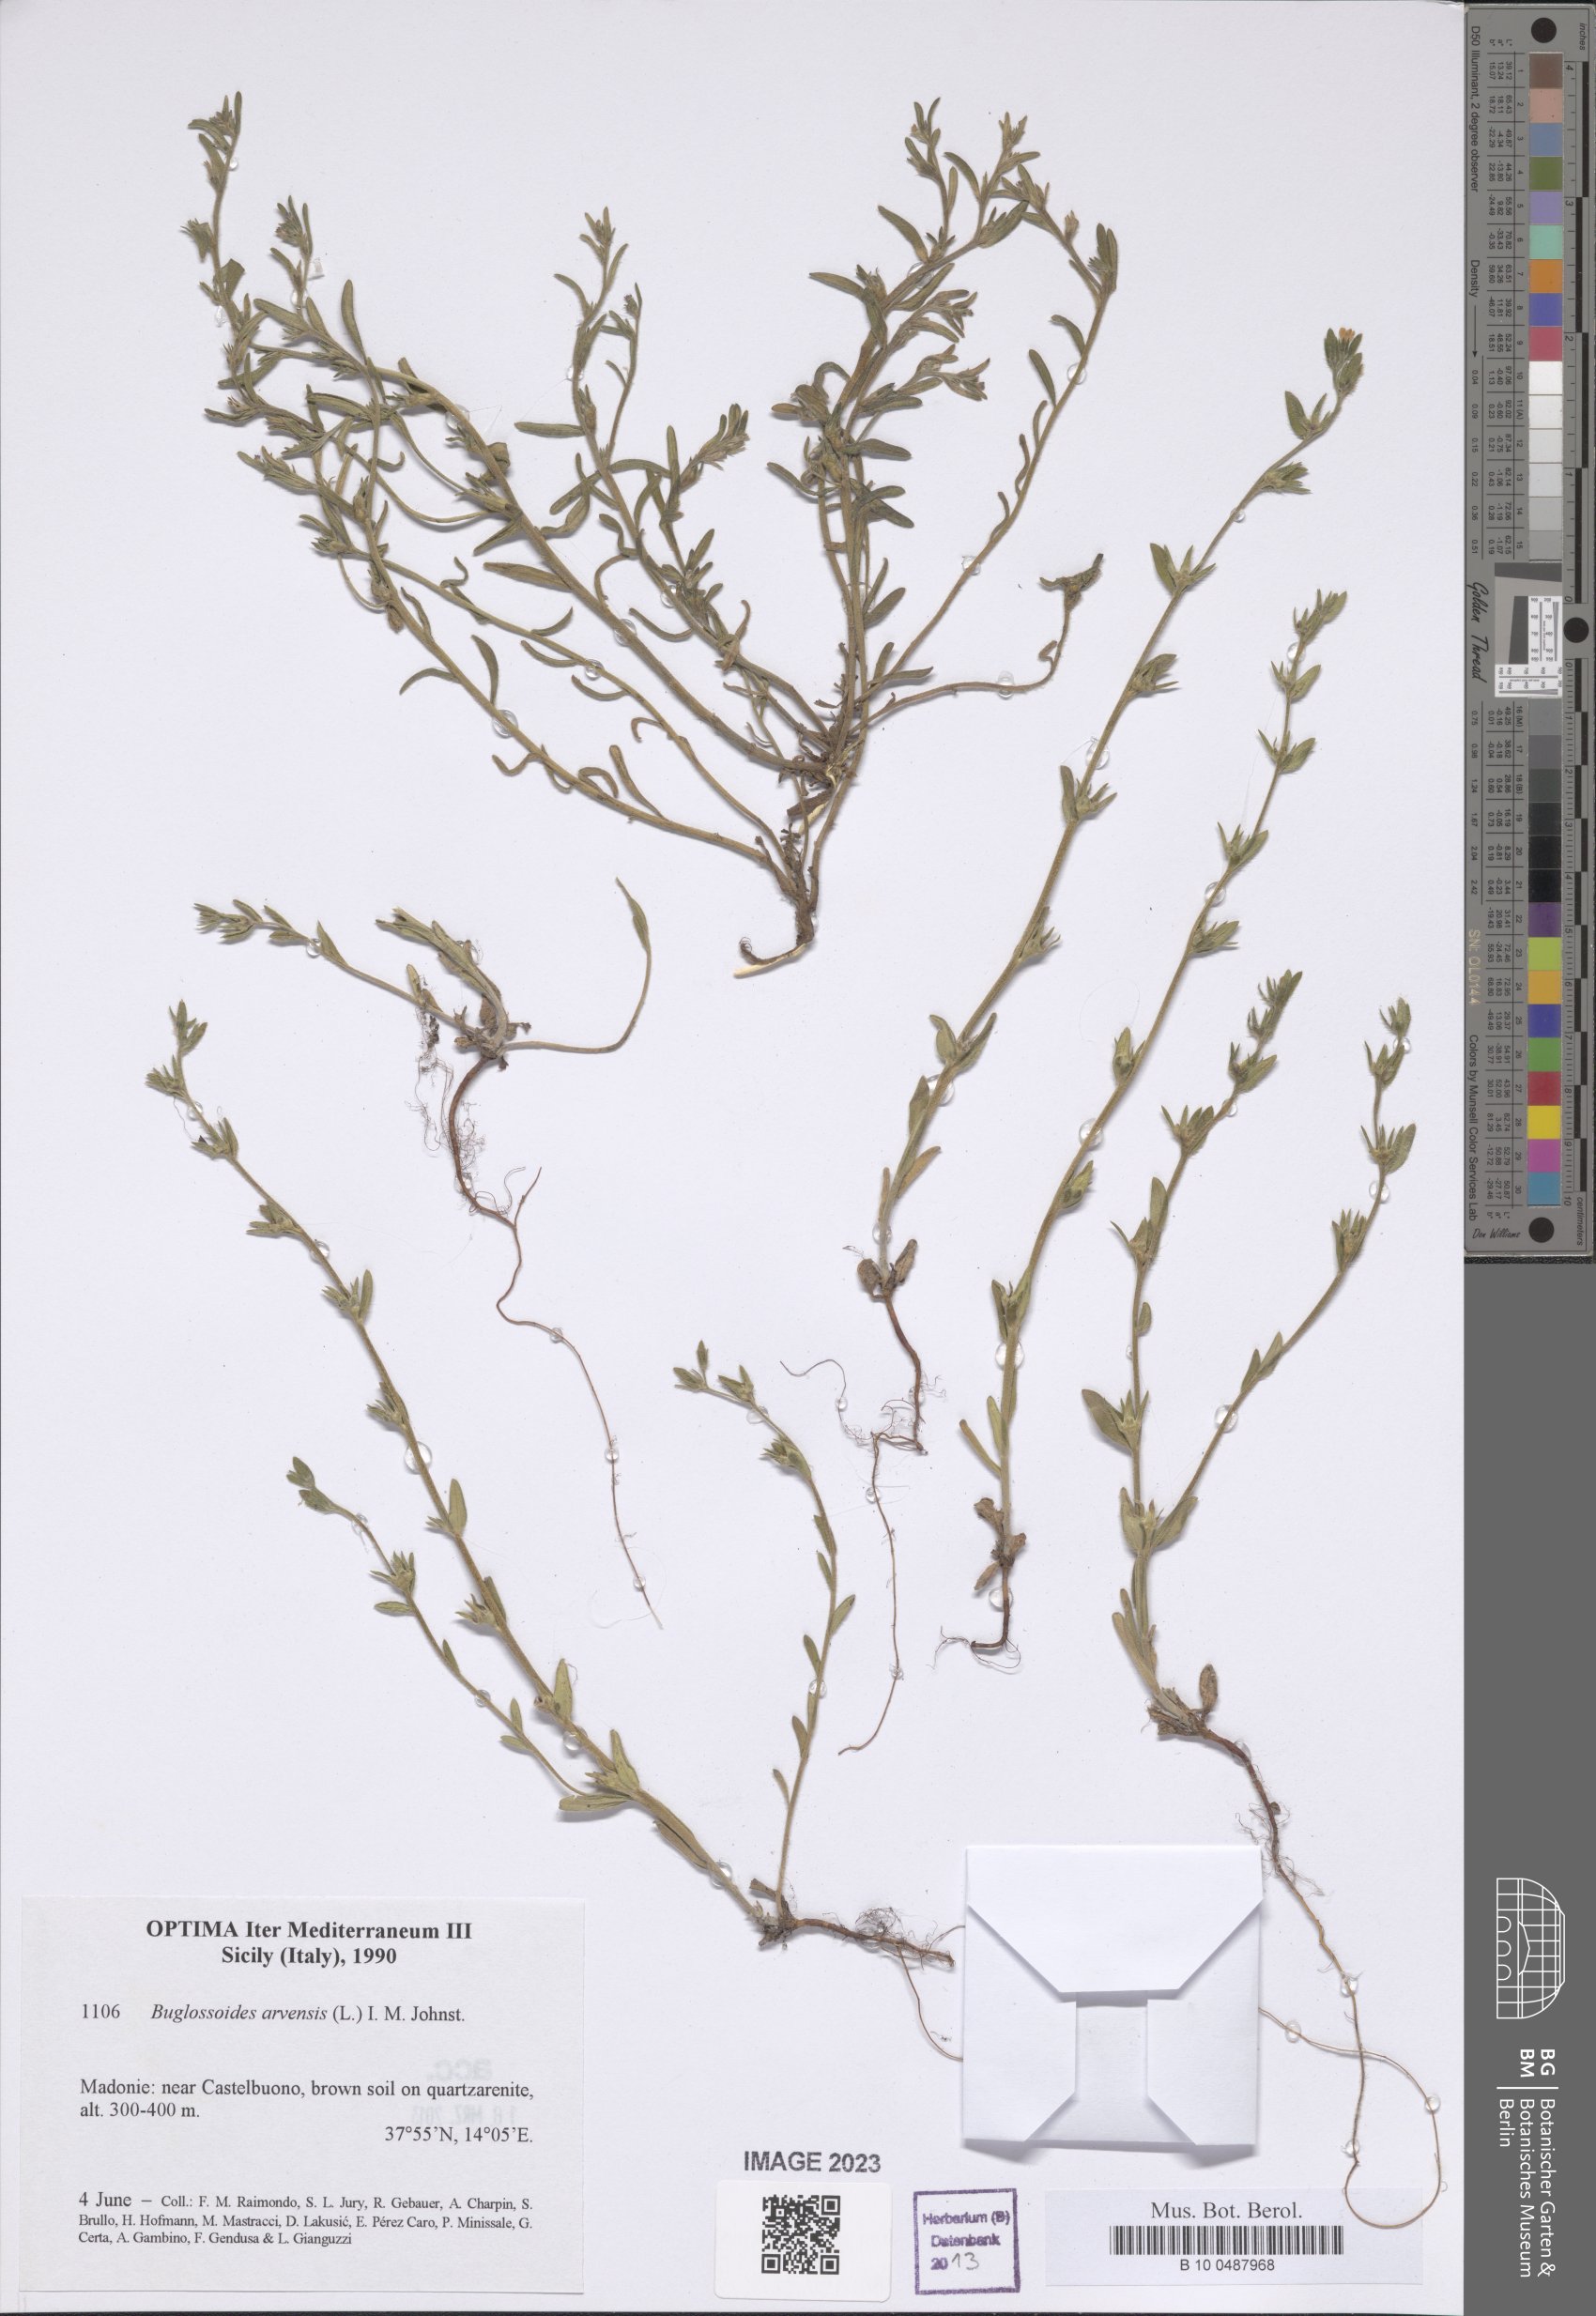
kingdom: Plantae
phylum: Tracheophyta
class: Magnoliopsida
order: Boraginales
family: Boraginaceae
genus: Buglossoides
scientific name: Buglossoides arvensis
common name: Corn gromwell
